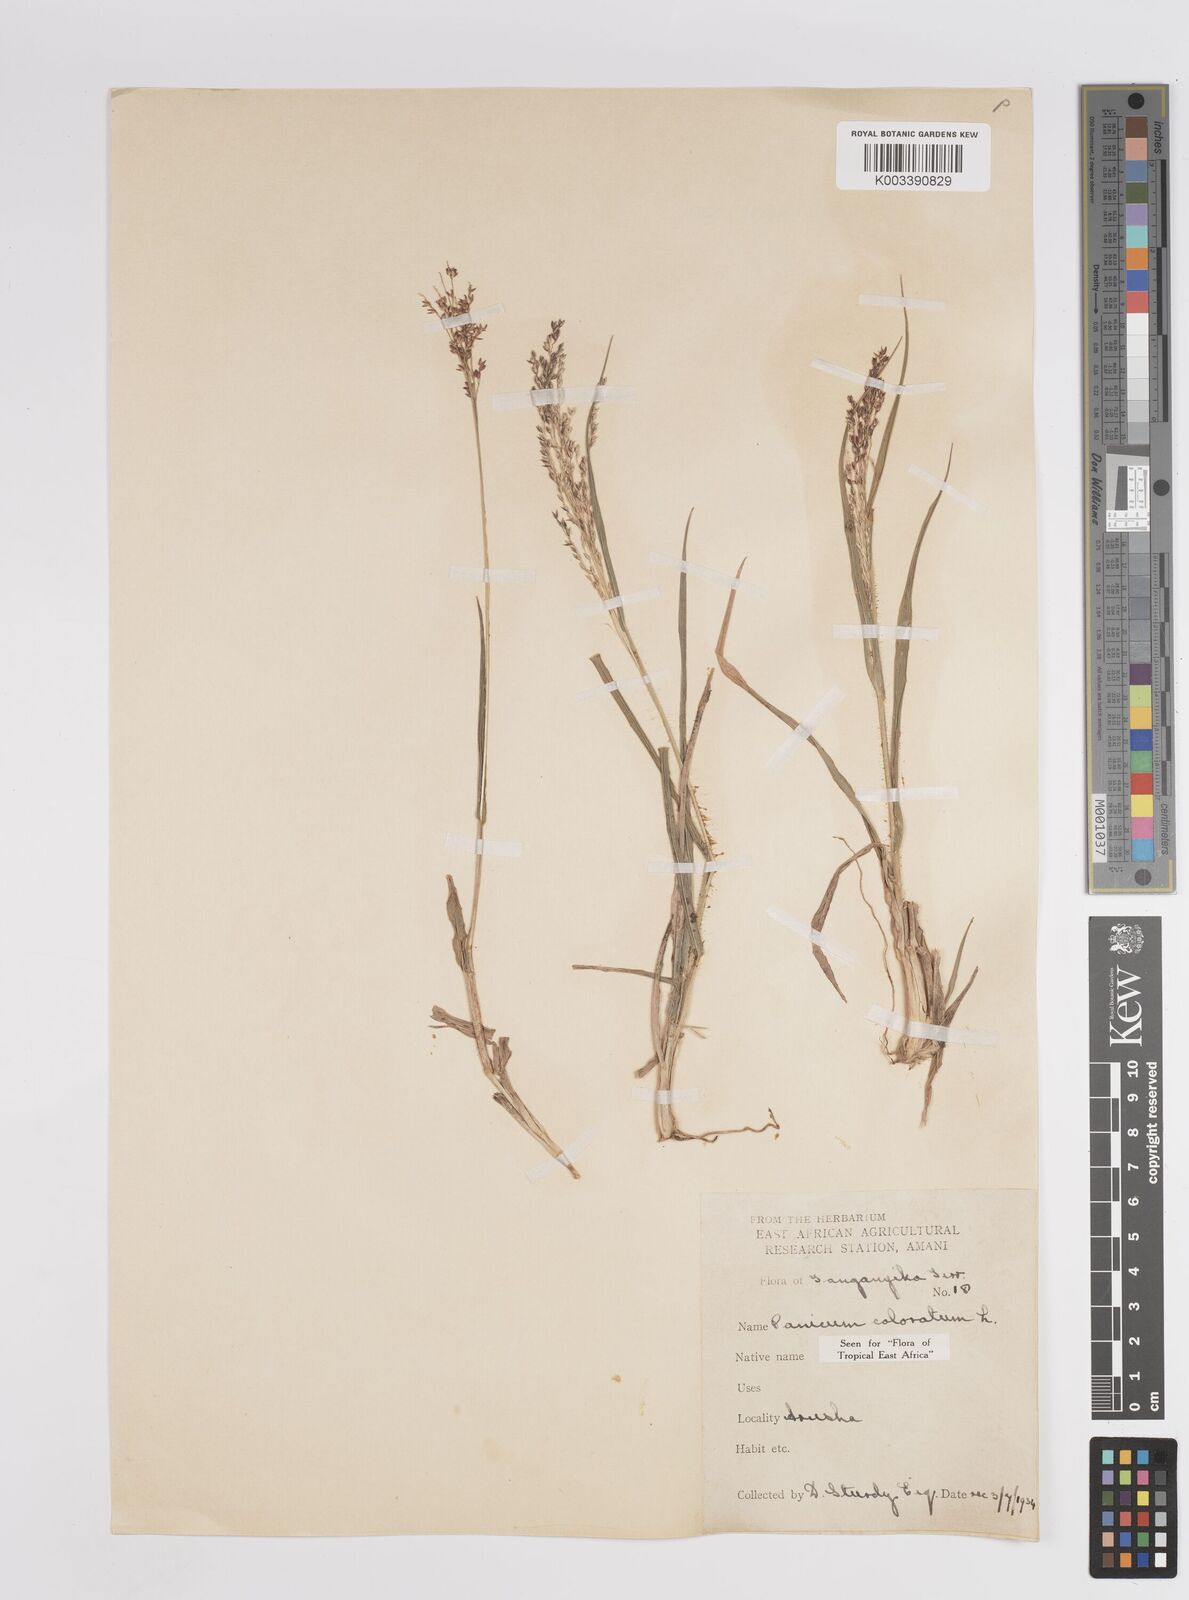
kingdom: Plantae
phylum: Tracheophyta
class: Liliopsida
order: Poales
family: Poaceae
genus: Panicum
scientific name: Panicum coloratum
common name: Kleingrass
